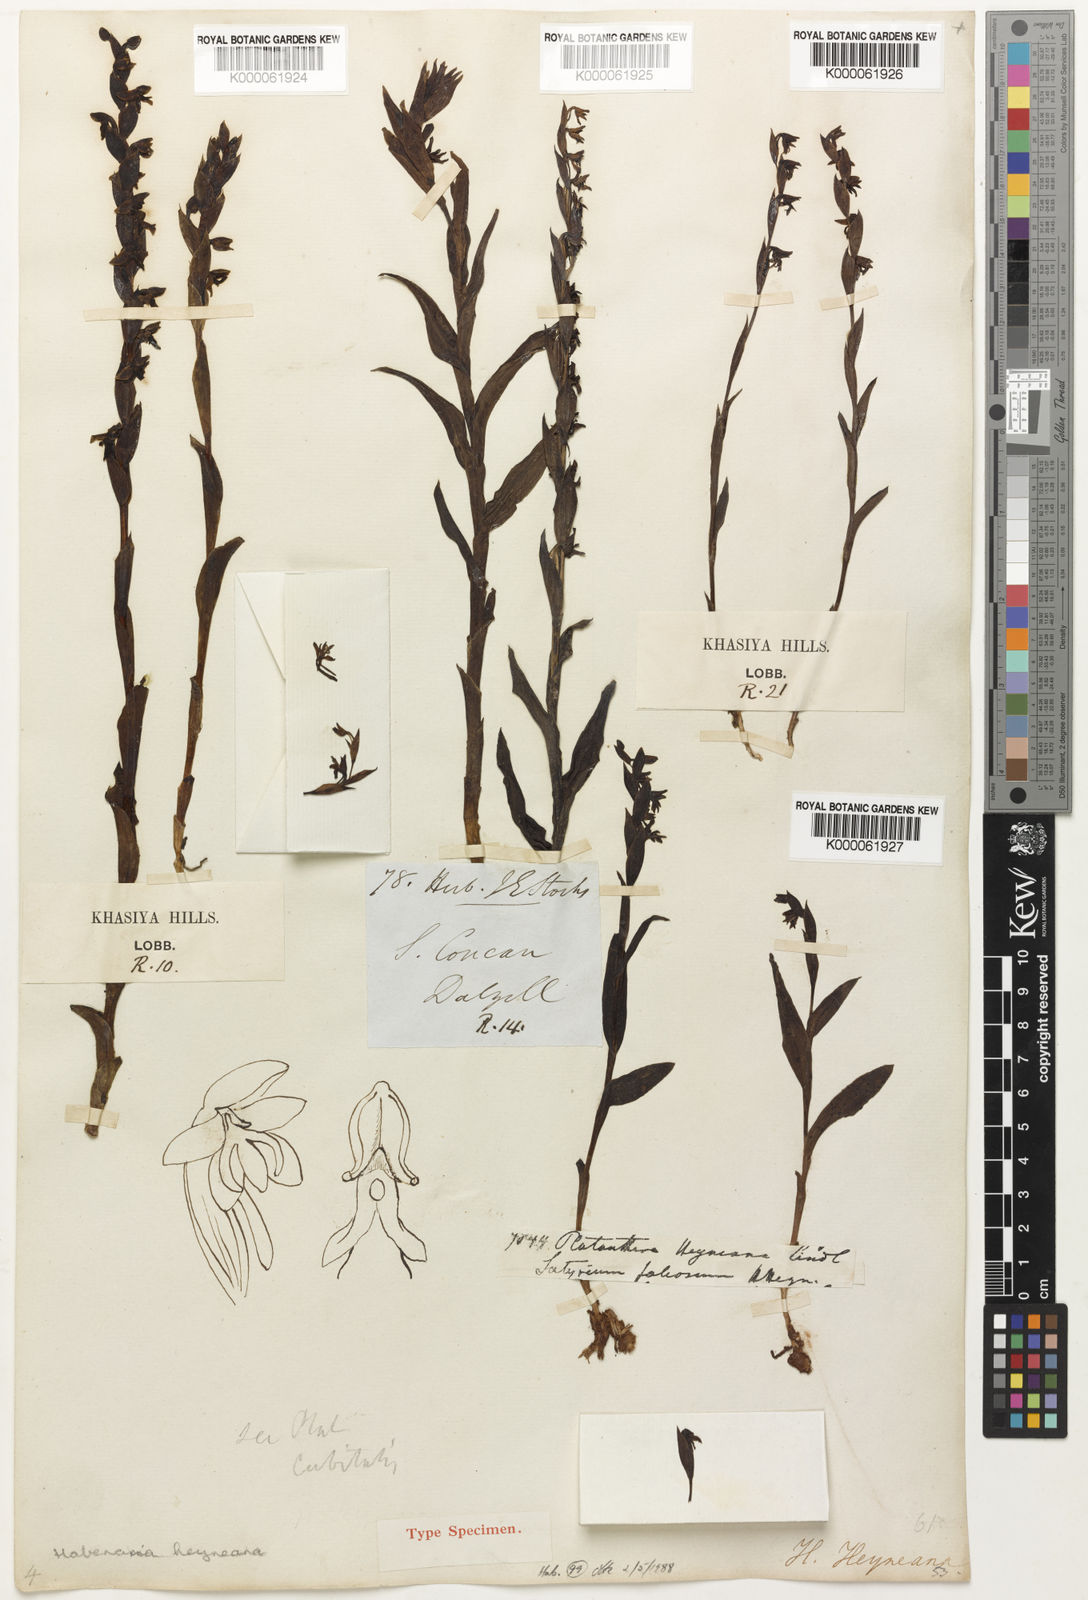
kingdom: Plantae
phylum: Tracheophyta
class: Liliopsida
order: Asparagales
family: Orchidaceae
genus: Habenaria
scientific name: Habenaria heyneana
